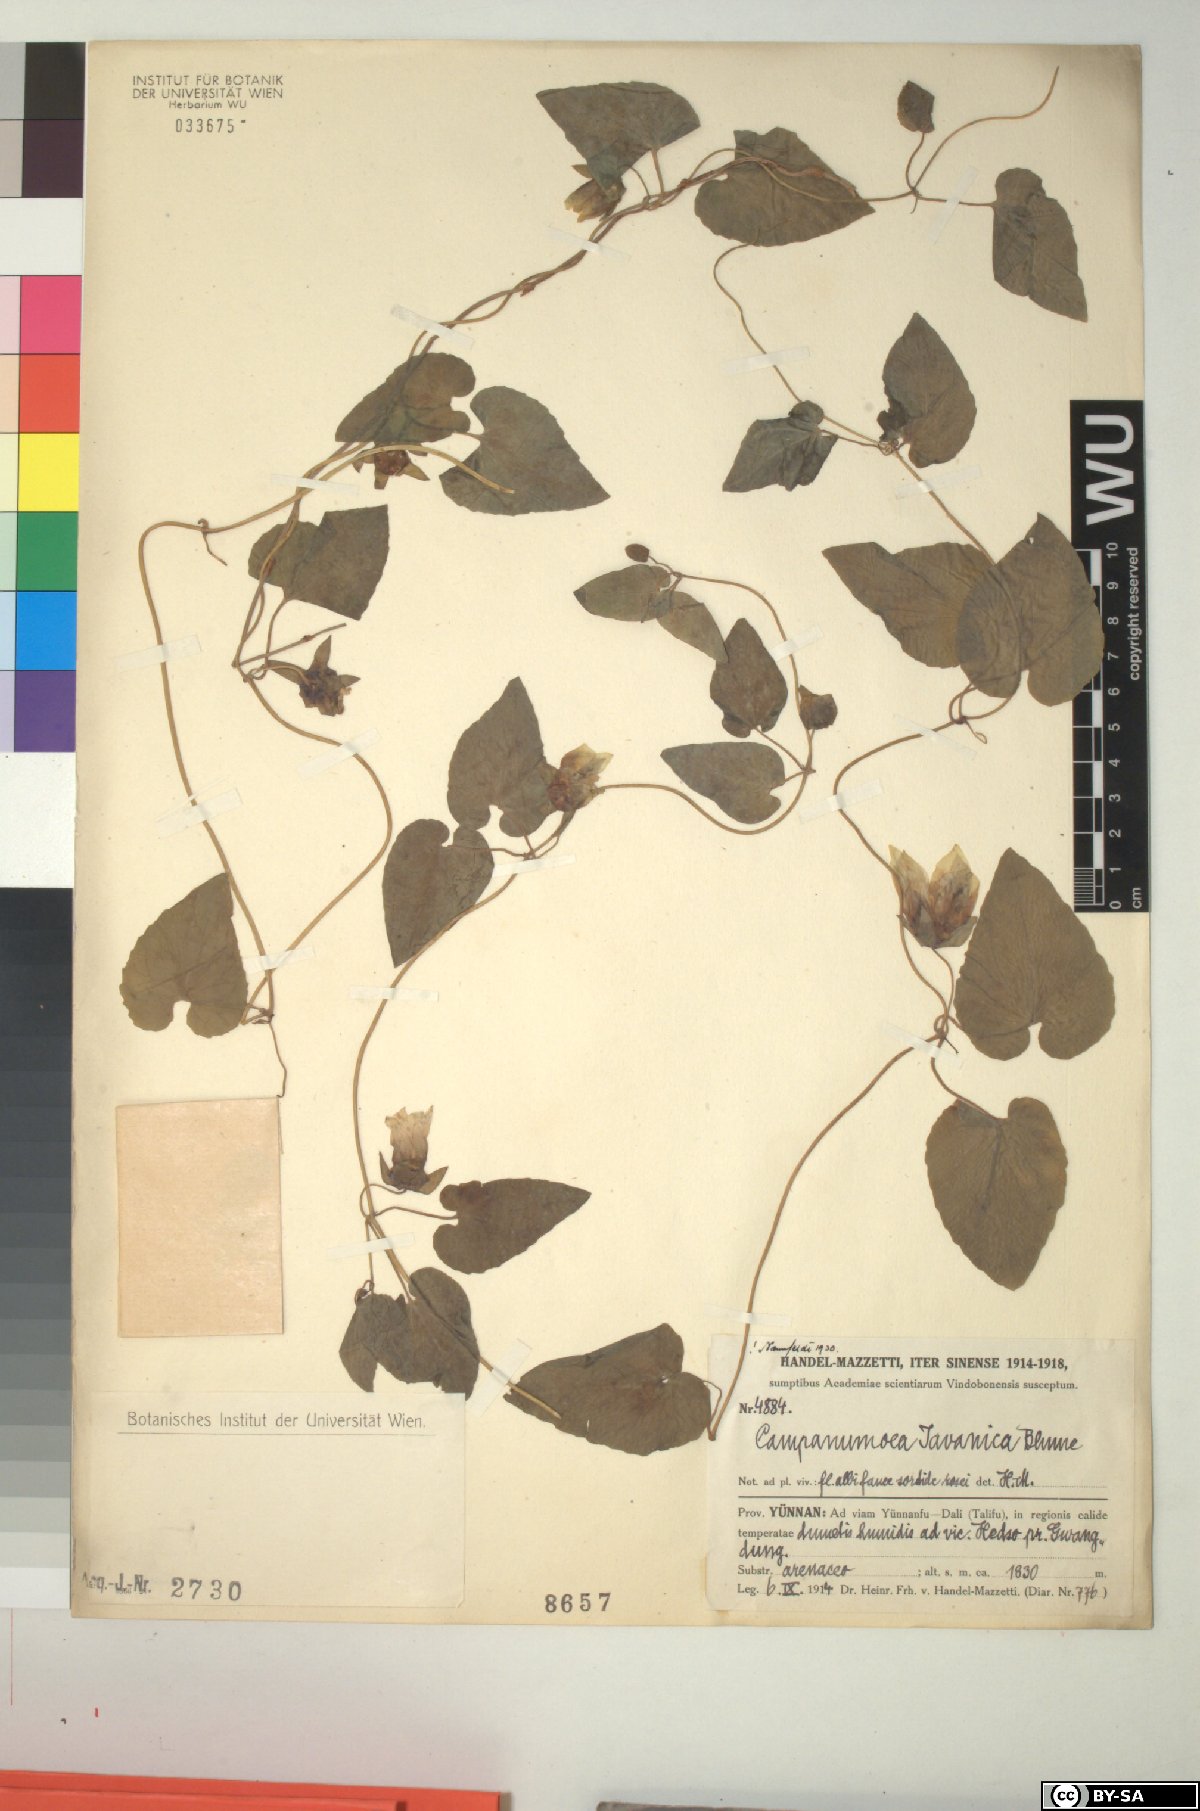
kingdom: Plantae
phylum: Tracheophyta
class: Magnoliopsida
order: Asterales
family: Campanulaceae
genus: Codonopsis
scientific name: Codonopsis javanica
